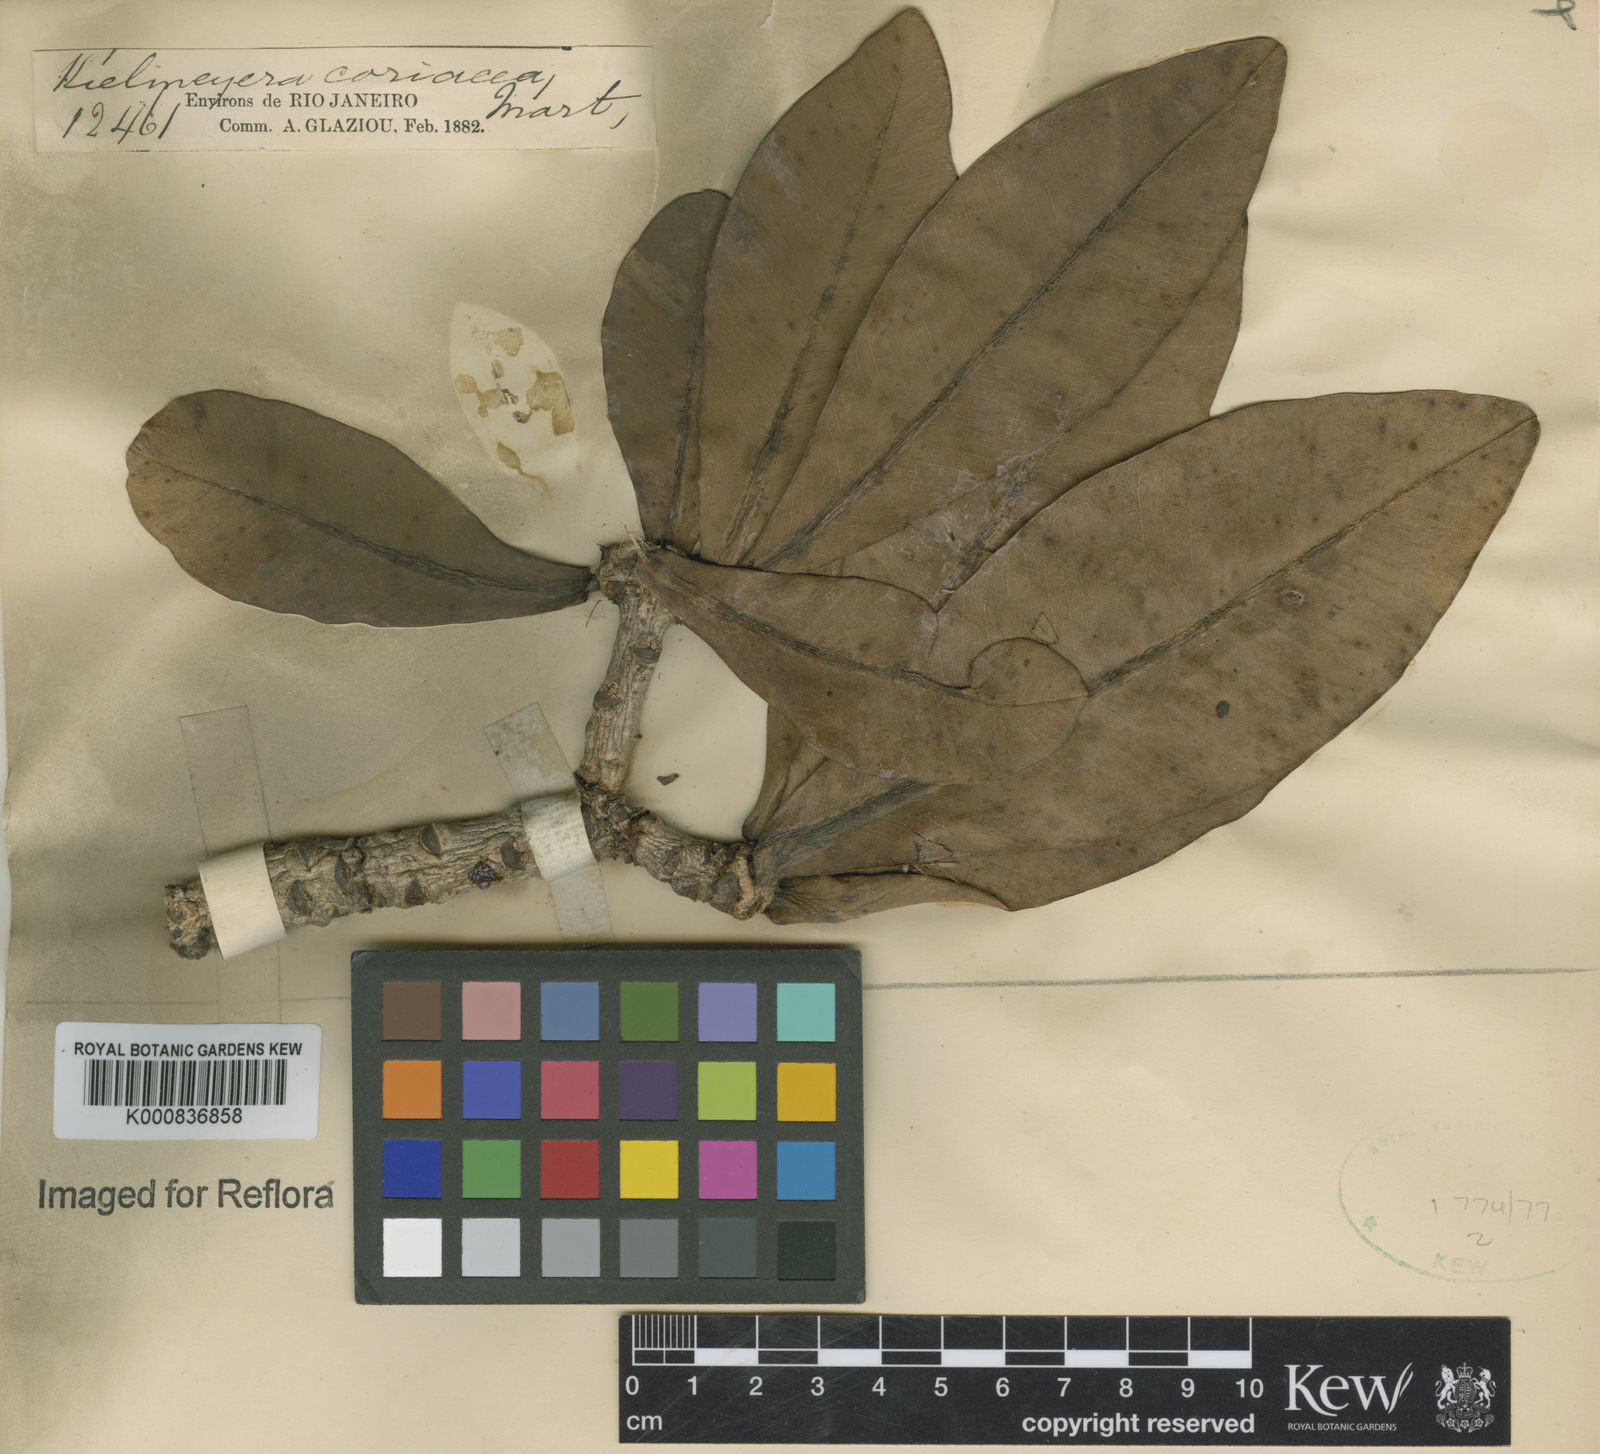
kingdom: Plantae
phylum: Tracheophyta
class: Magnoliopsida
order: Malpighiales
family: Calophyllaceae
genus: Kielmeyera
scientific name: Kielmeyera coriacea
